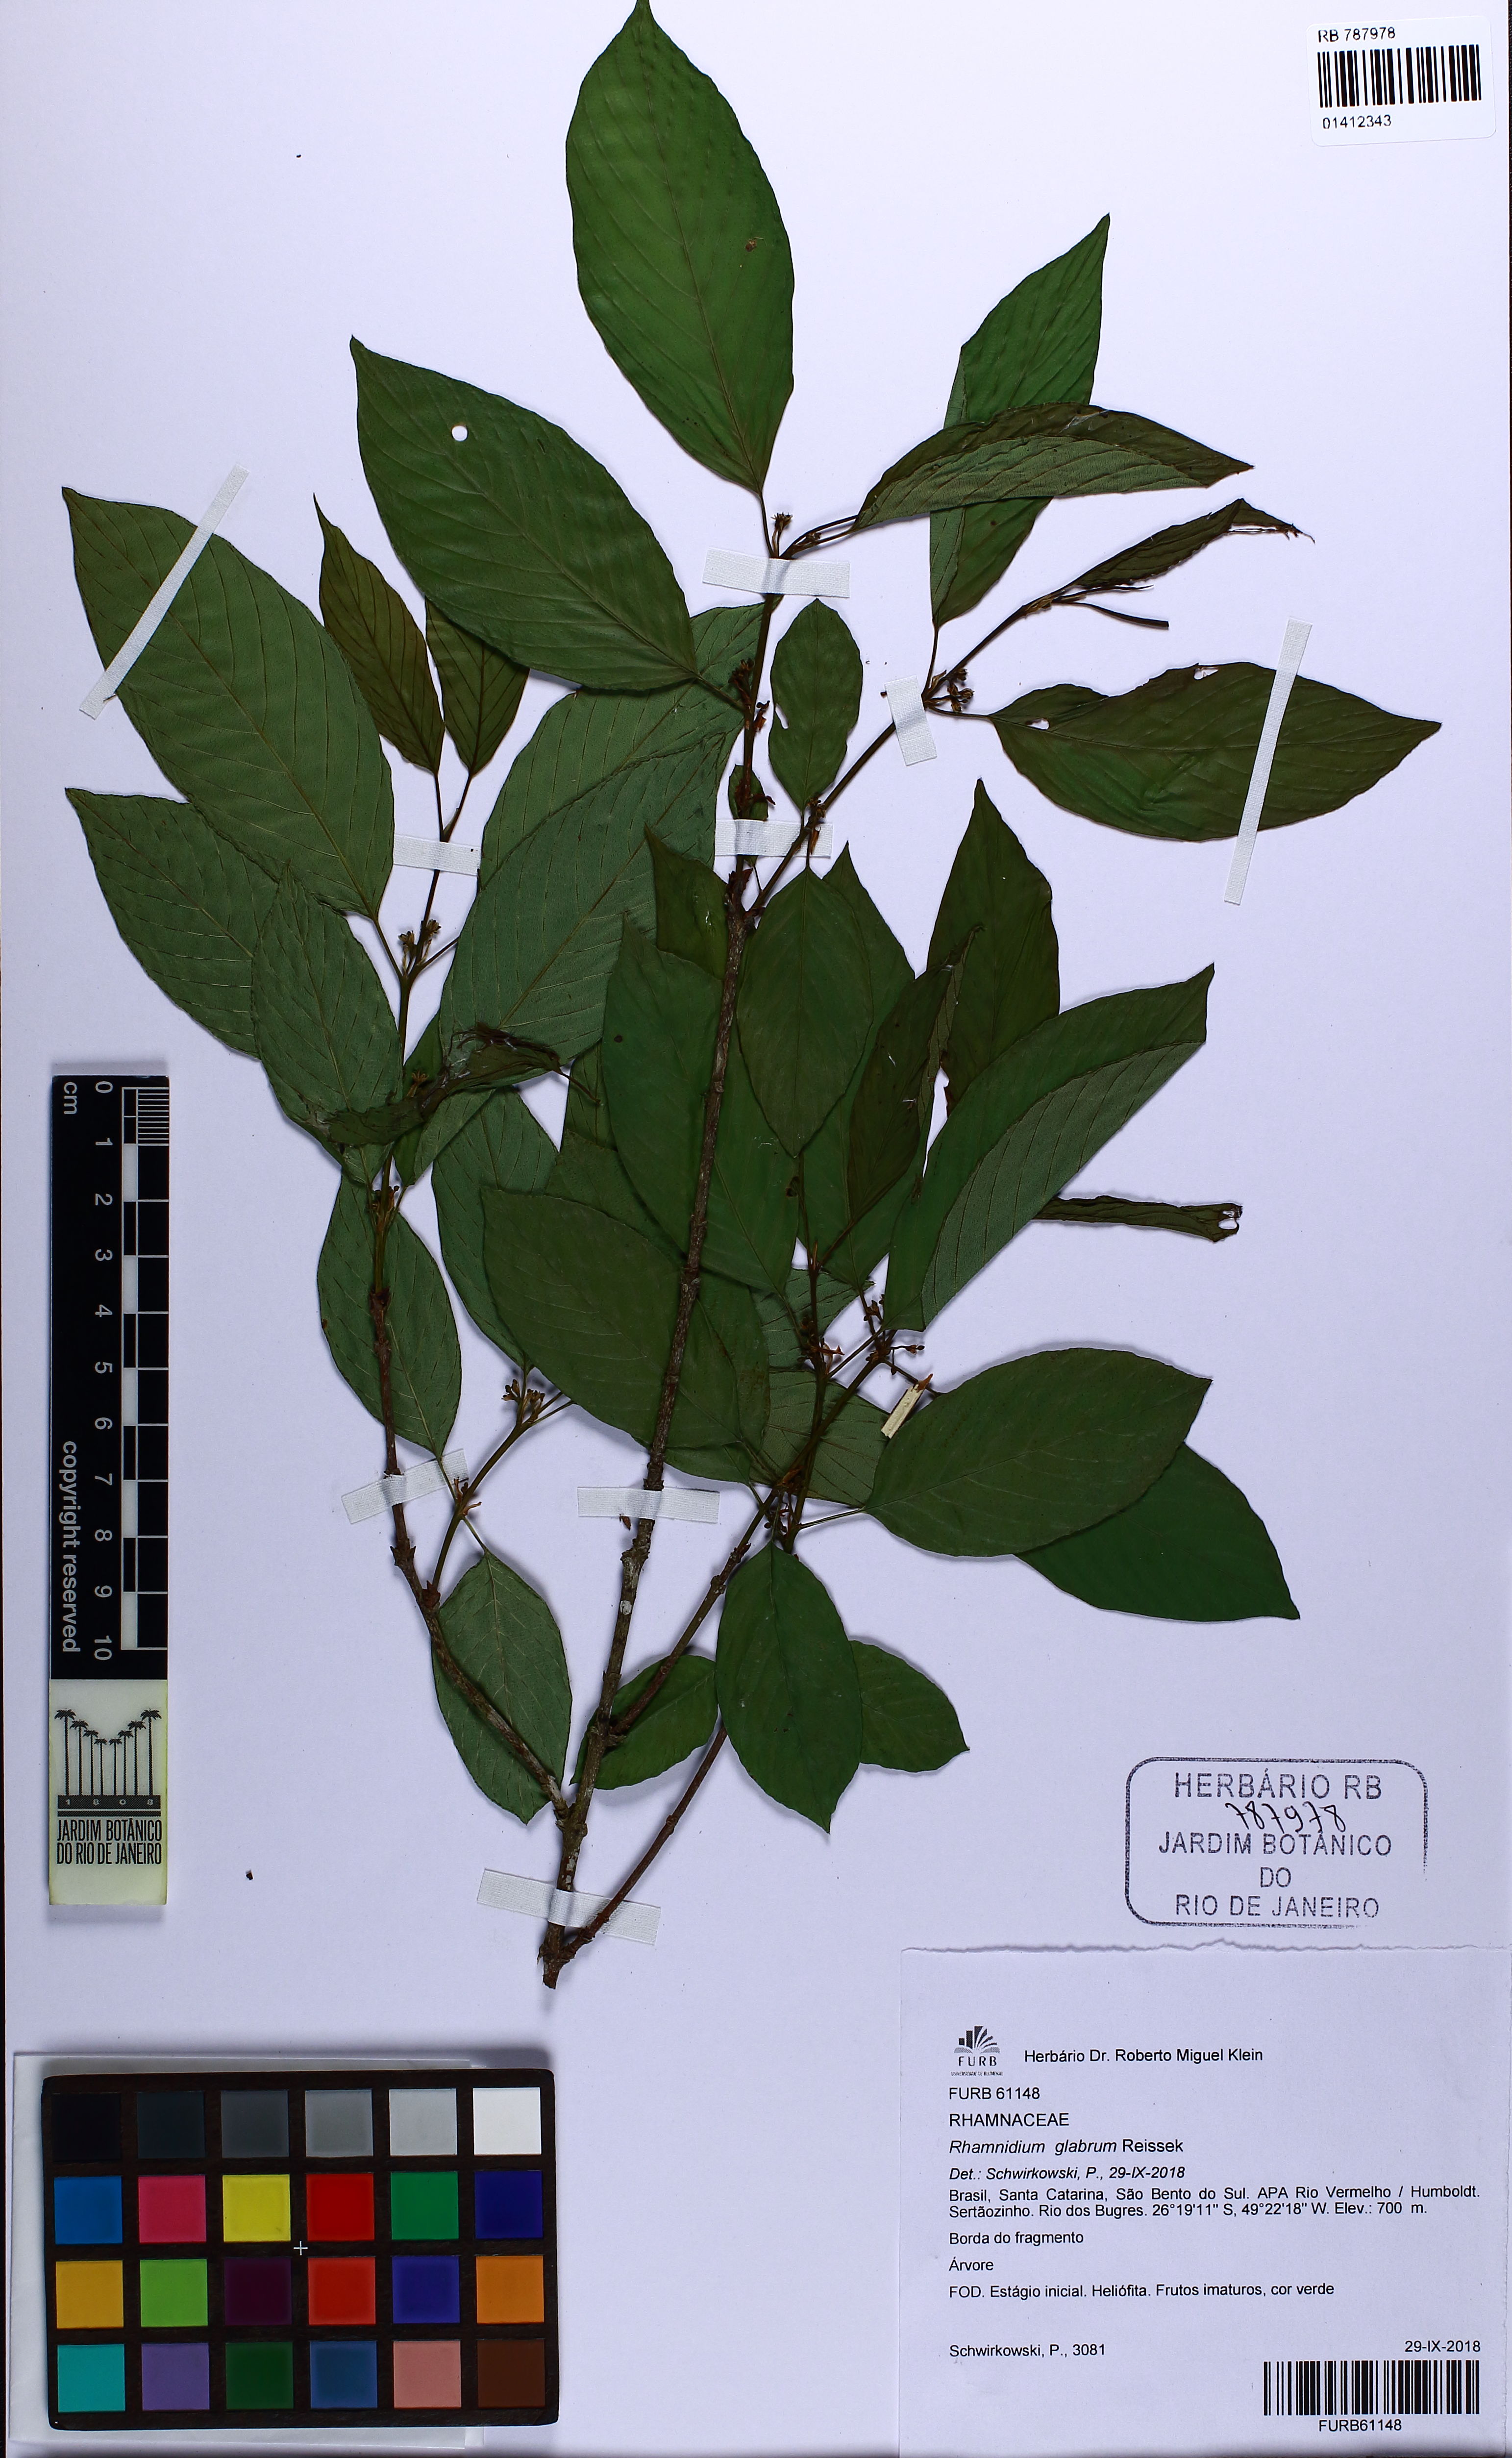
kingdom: Plantae
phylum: Tracheophyta
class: Magnoliopsida
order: Rosales
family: Rhamnaceae
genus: Rhamnidium
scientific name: Rhamnidium glabrum
